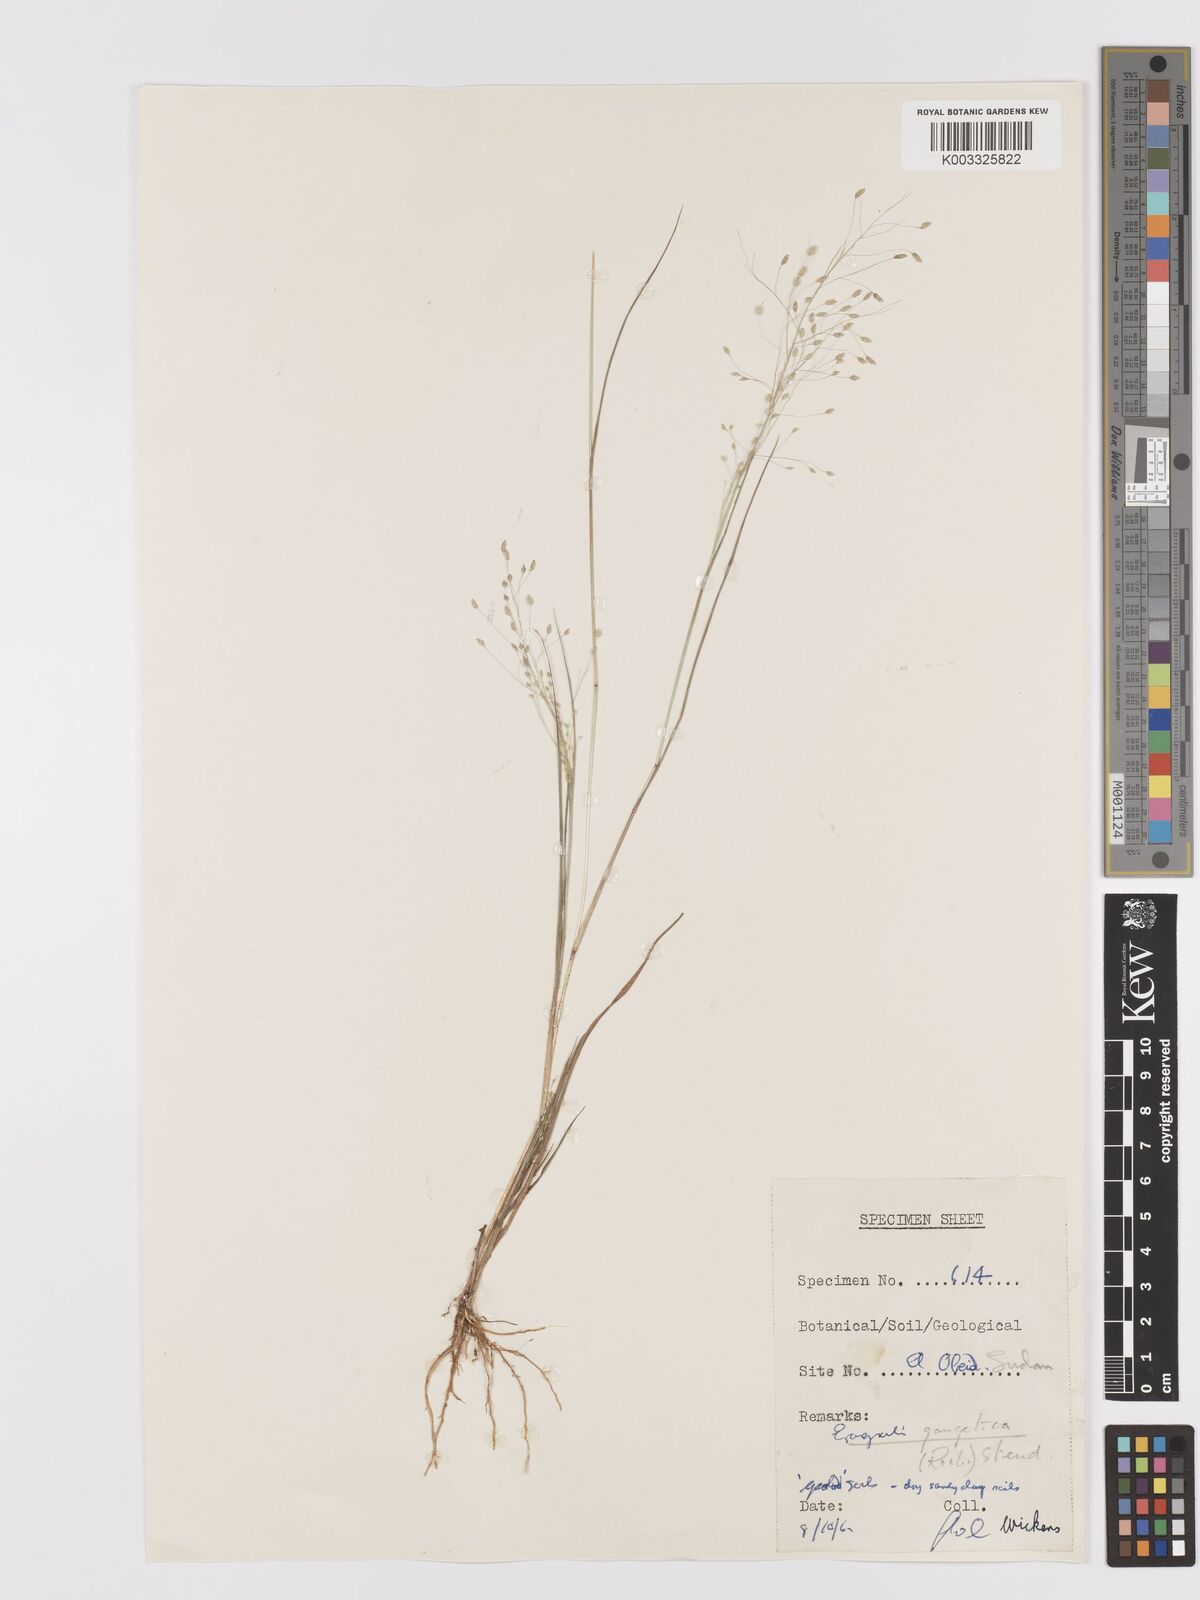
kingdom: Plantae
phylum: Tracheophyta
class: Liliopsida
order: Poales
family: Poaceae
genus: Eragrostis
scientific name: Eragrostis gangetica
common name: Slimflower lovegrass
